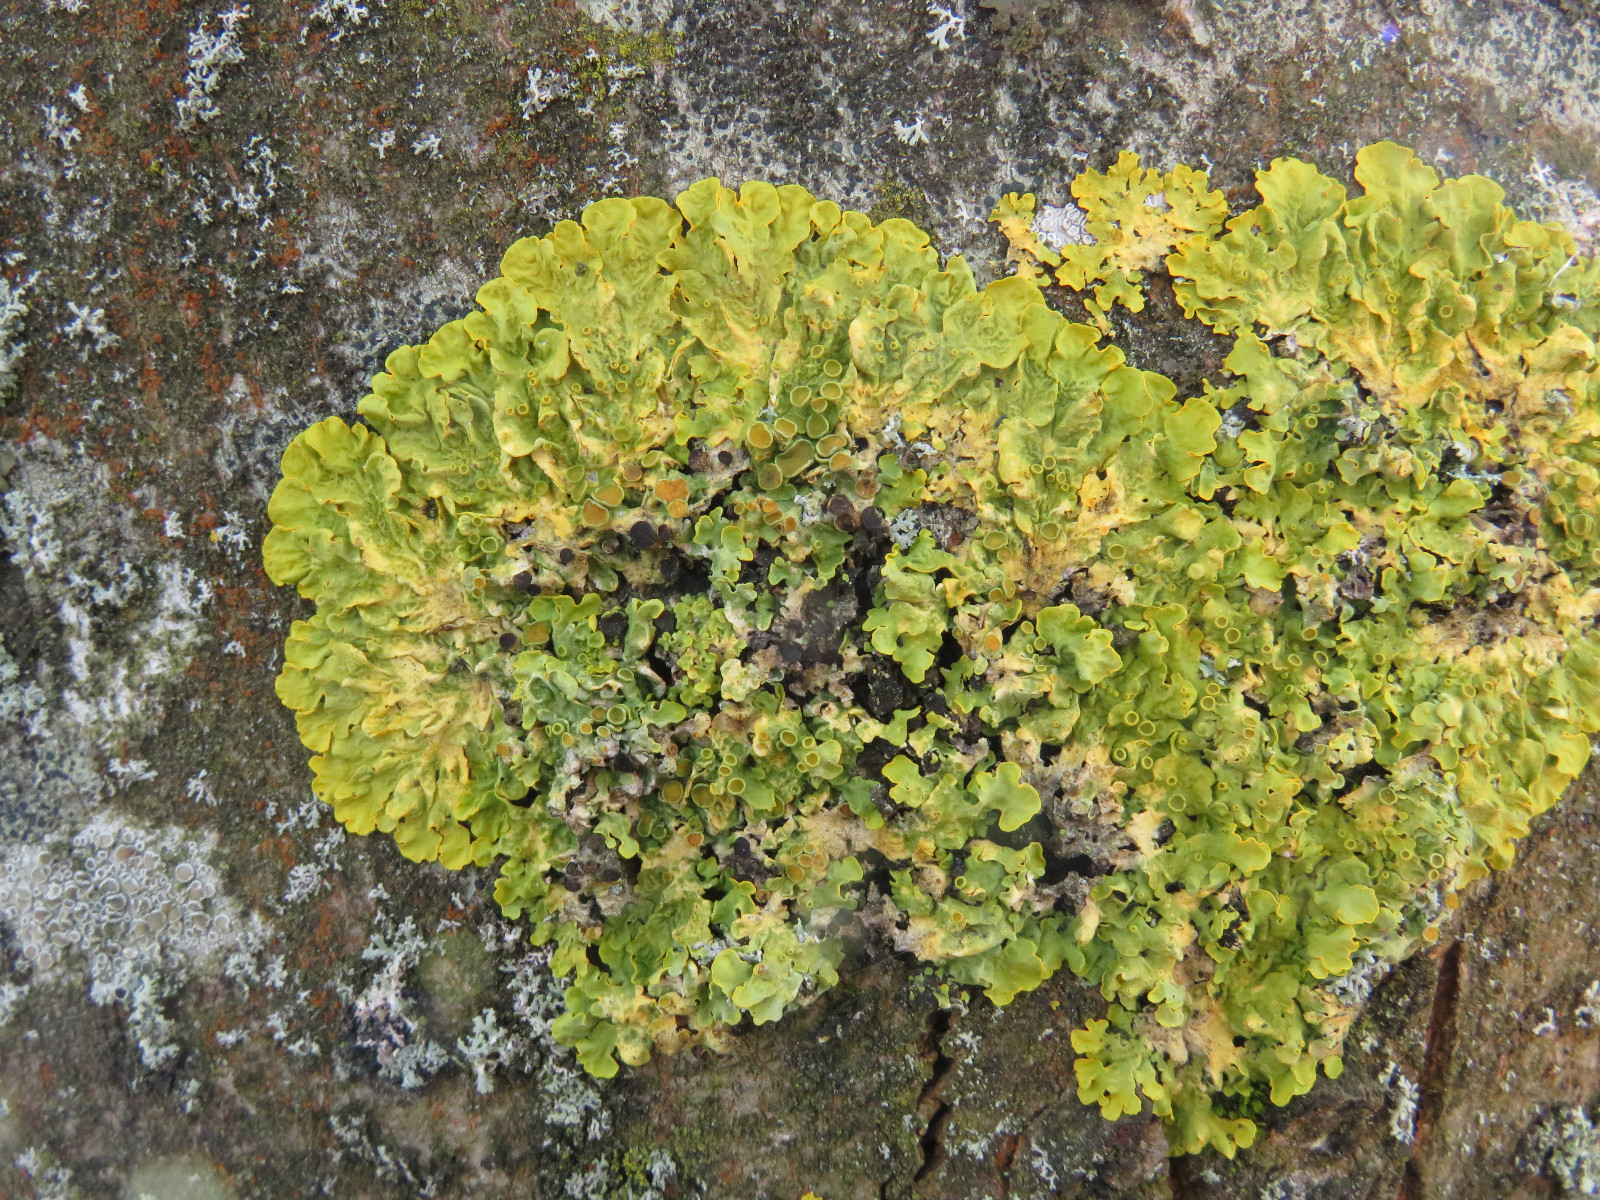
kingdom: Fungi
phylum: Ascomycota
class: Lecanoromycetes
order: Teloschistales
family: Teloschistaceae
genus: Xanthoria
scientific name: Xanthoria parietina
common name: almindelig væggelav
